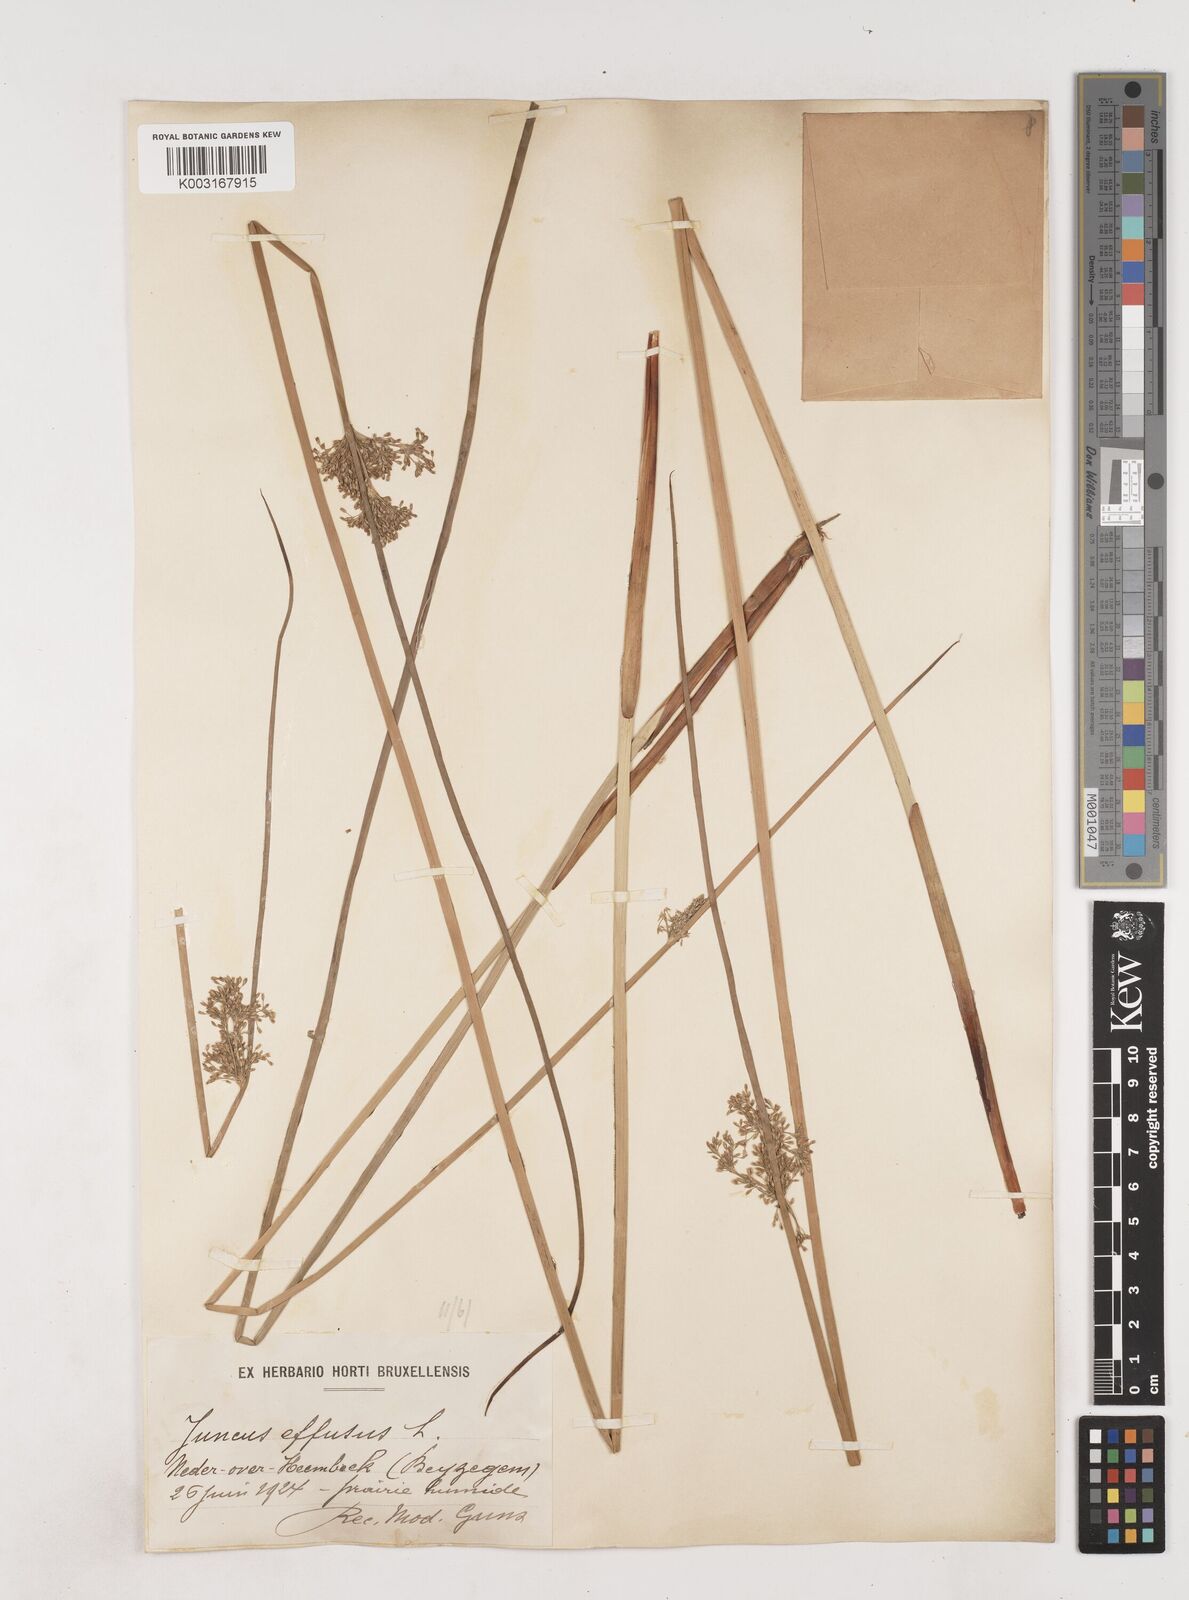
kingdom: Plantae
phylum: Tracheophyta
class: Liliopsida
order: Poales
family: Juncaceae
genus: Juncus
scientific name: Juncus effusus
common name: Soft rush
